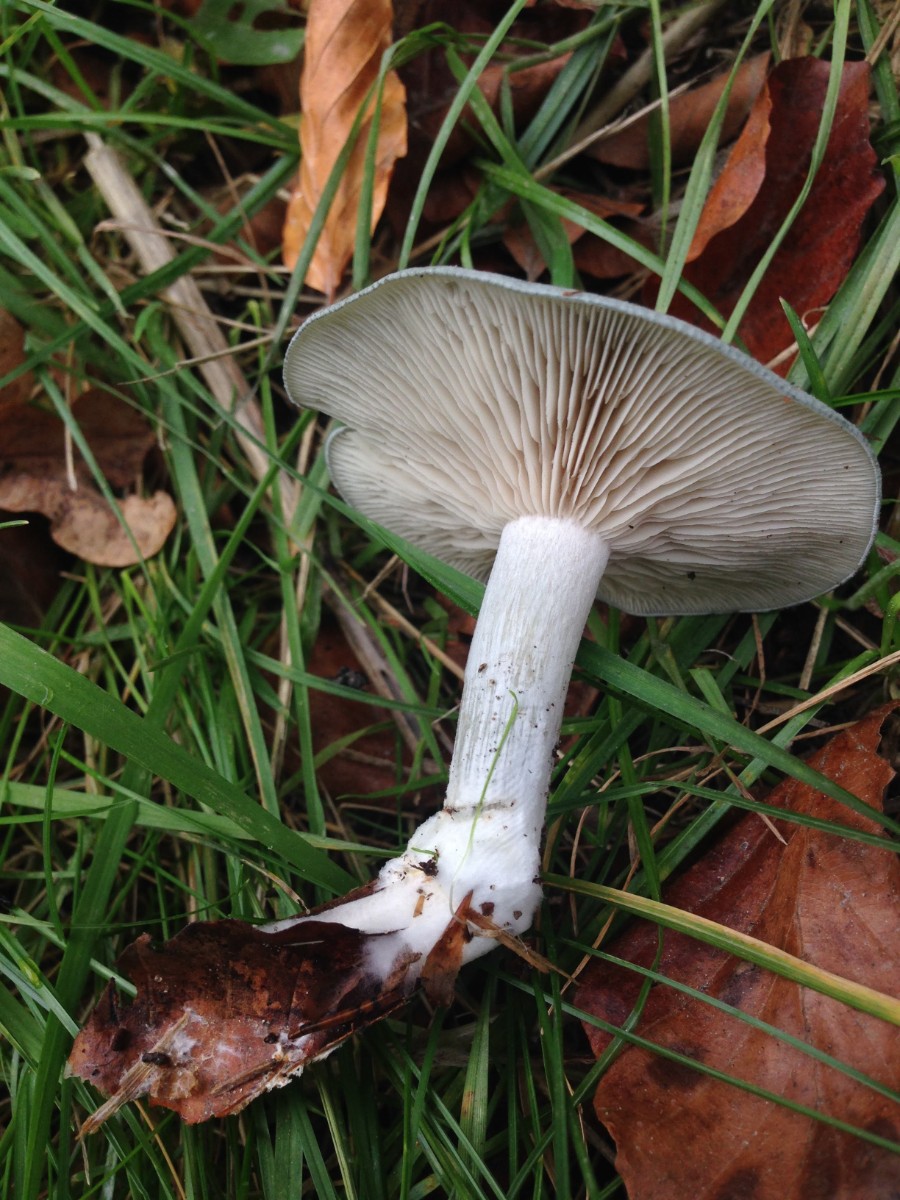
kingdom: Fungi
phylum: Basidiomycota
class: Agaricomycetes
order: Agaricales
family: Tricholomataceae
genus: Clitocybe
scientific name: Clitocybe odora
